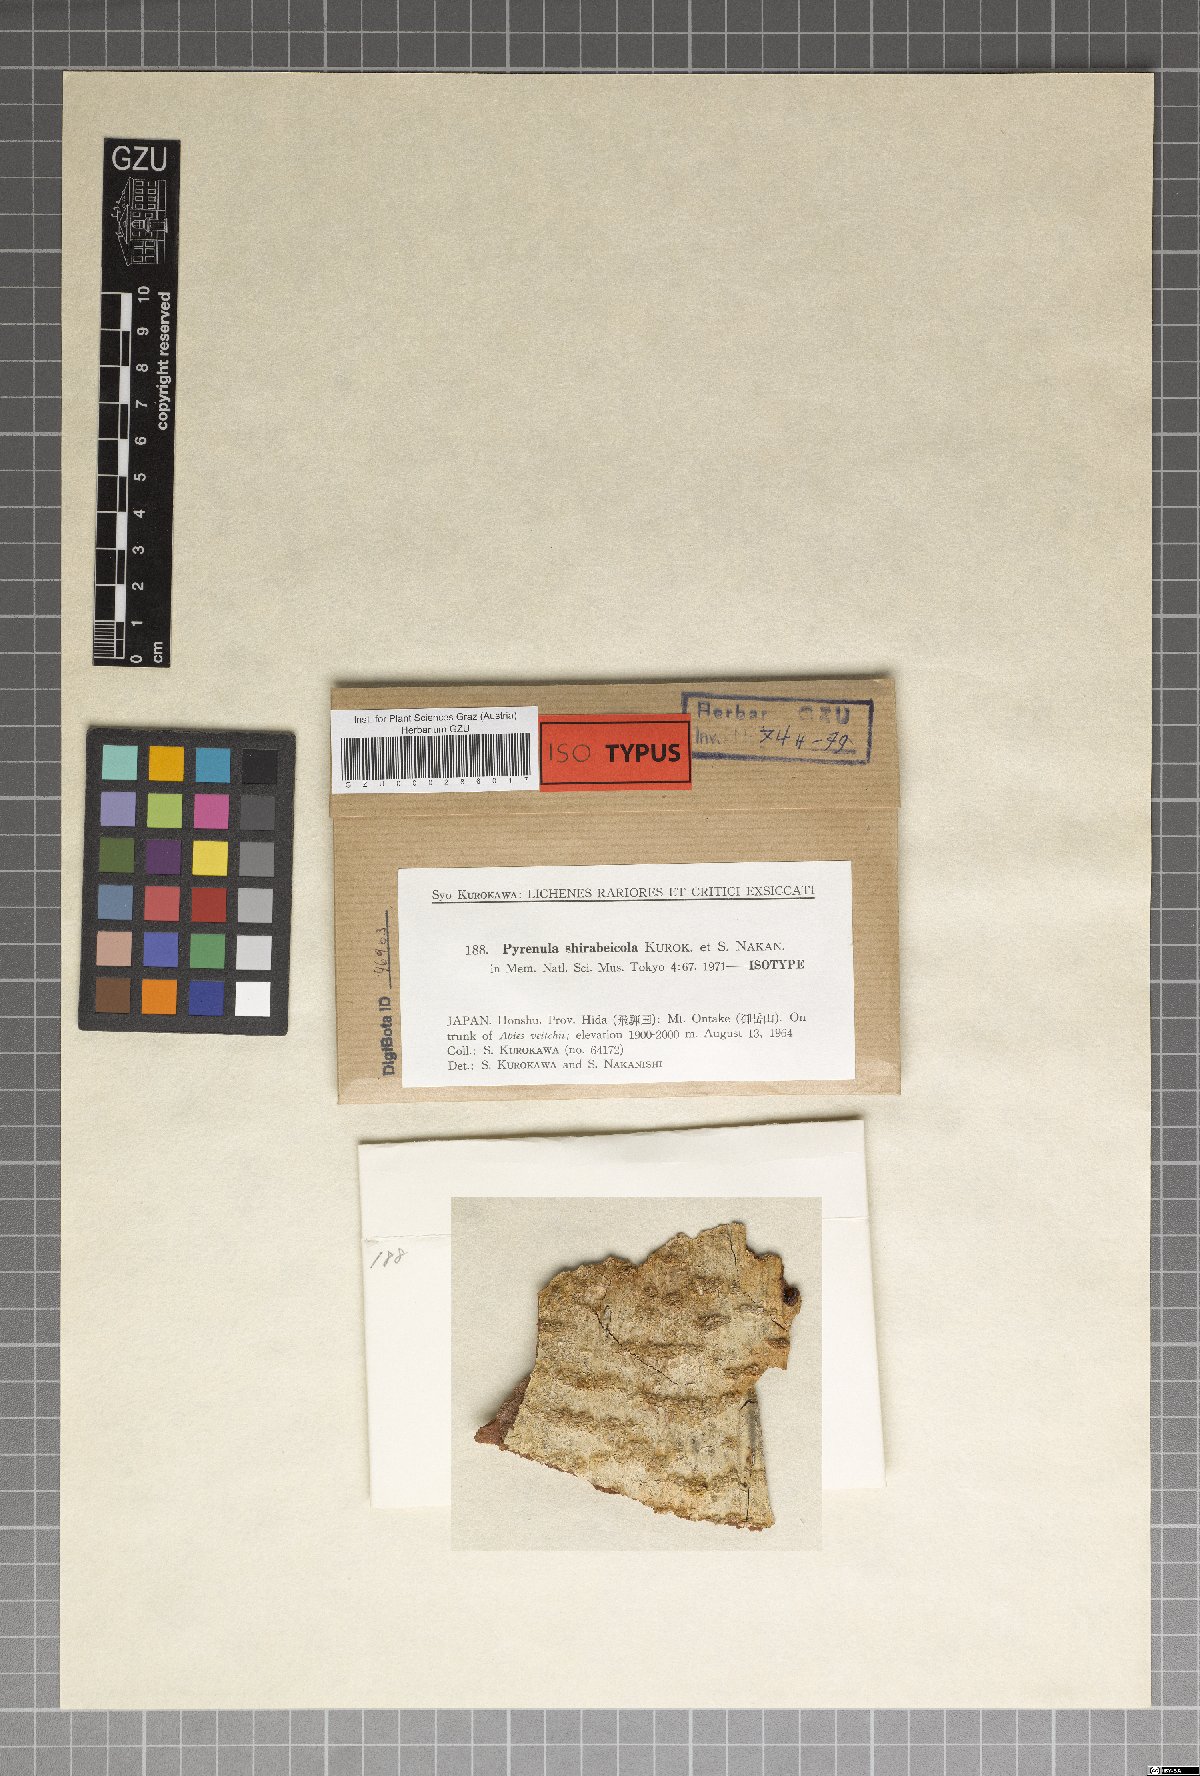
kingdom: Fungi
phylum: Ascomycota
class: Eurotiomycetes
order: Pyrenulales
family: Pyrenulaceae
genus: Pyrenula
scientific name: Pyrenula shirabeicola
